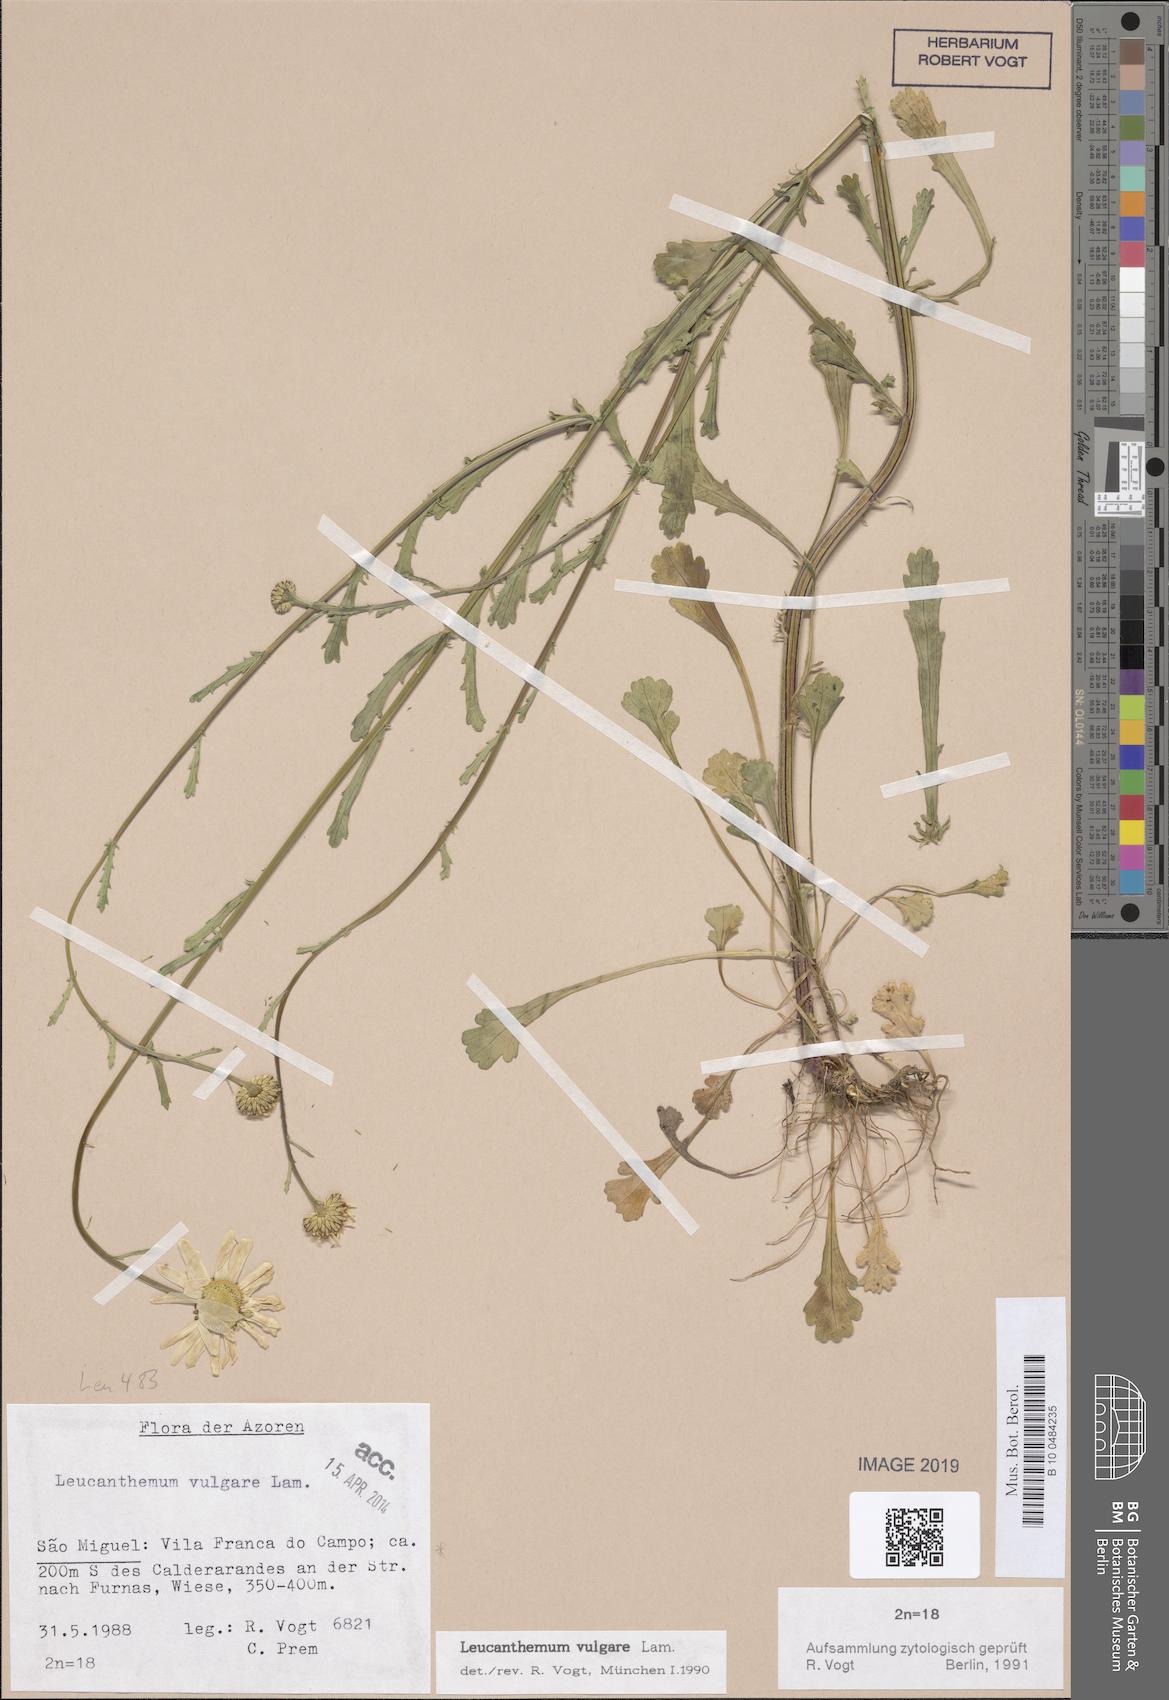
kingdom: Plantae
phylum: Tracheophyta
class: Magnoliopsida
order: Asterales
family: Asteraceae
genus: Leucanthemum
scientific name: Leucanthemum vulgare
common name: Oxeye daisy
